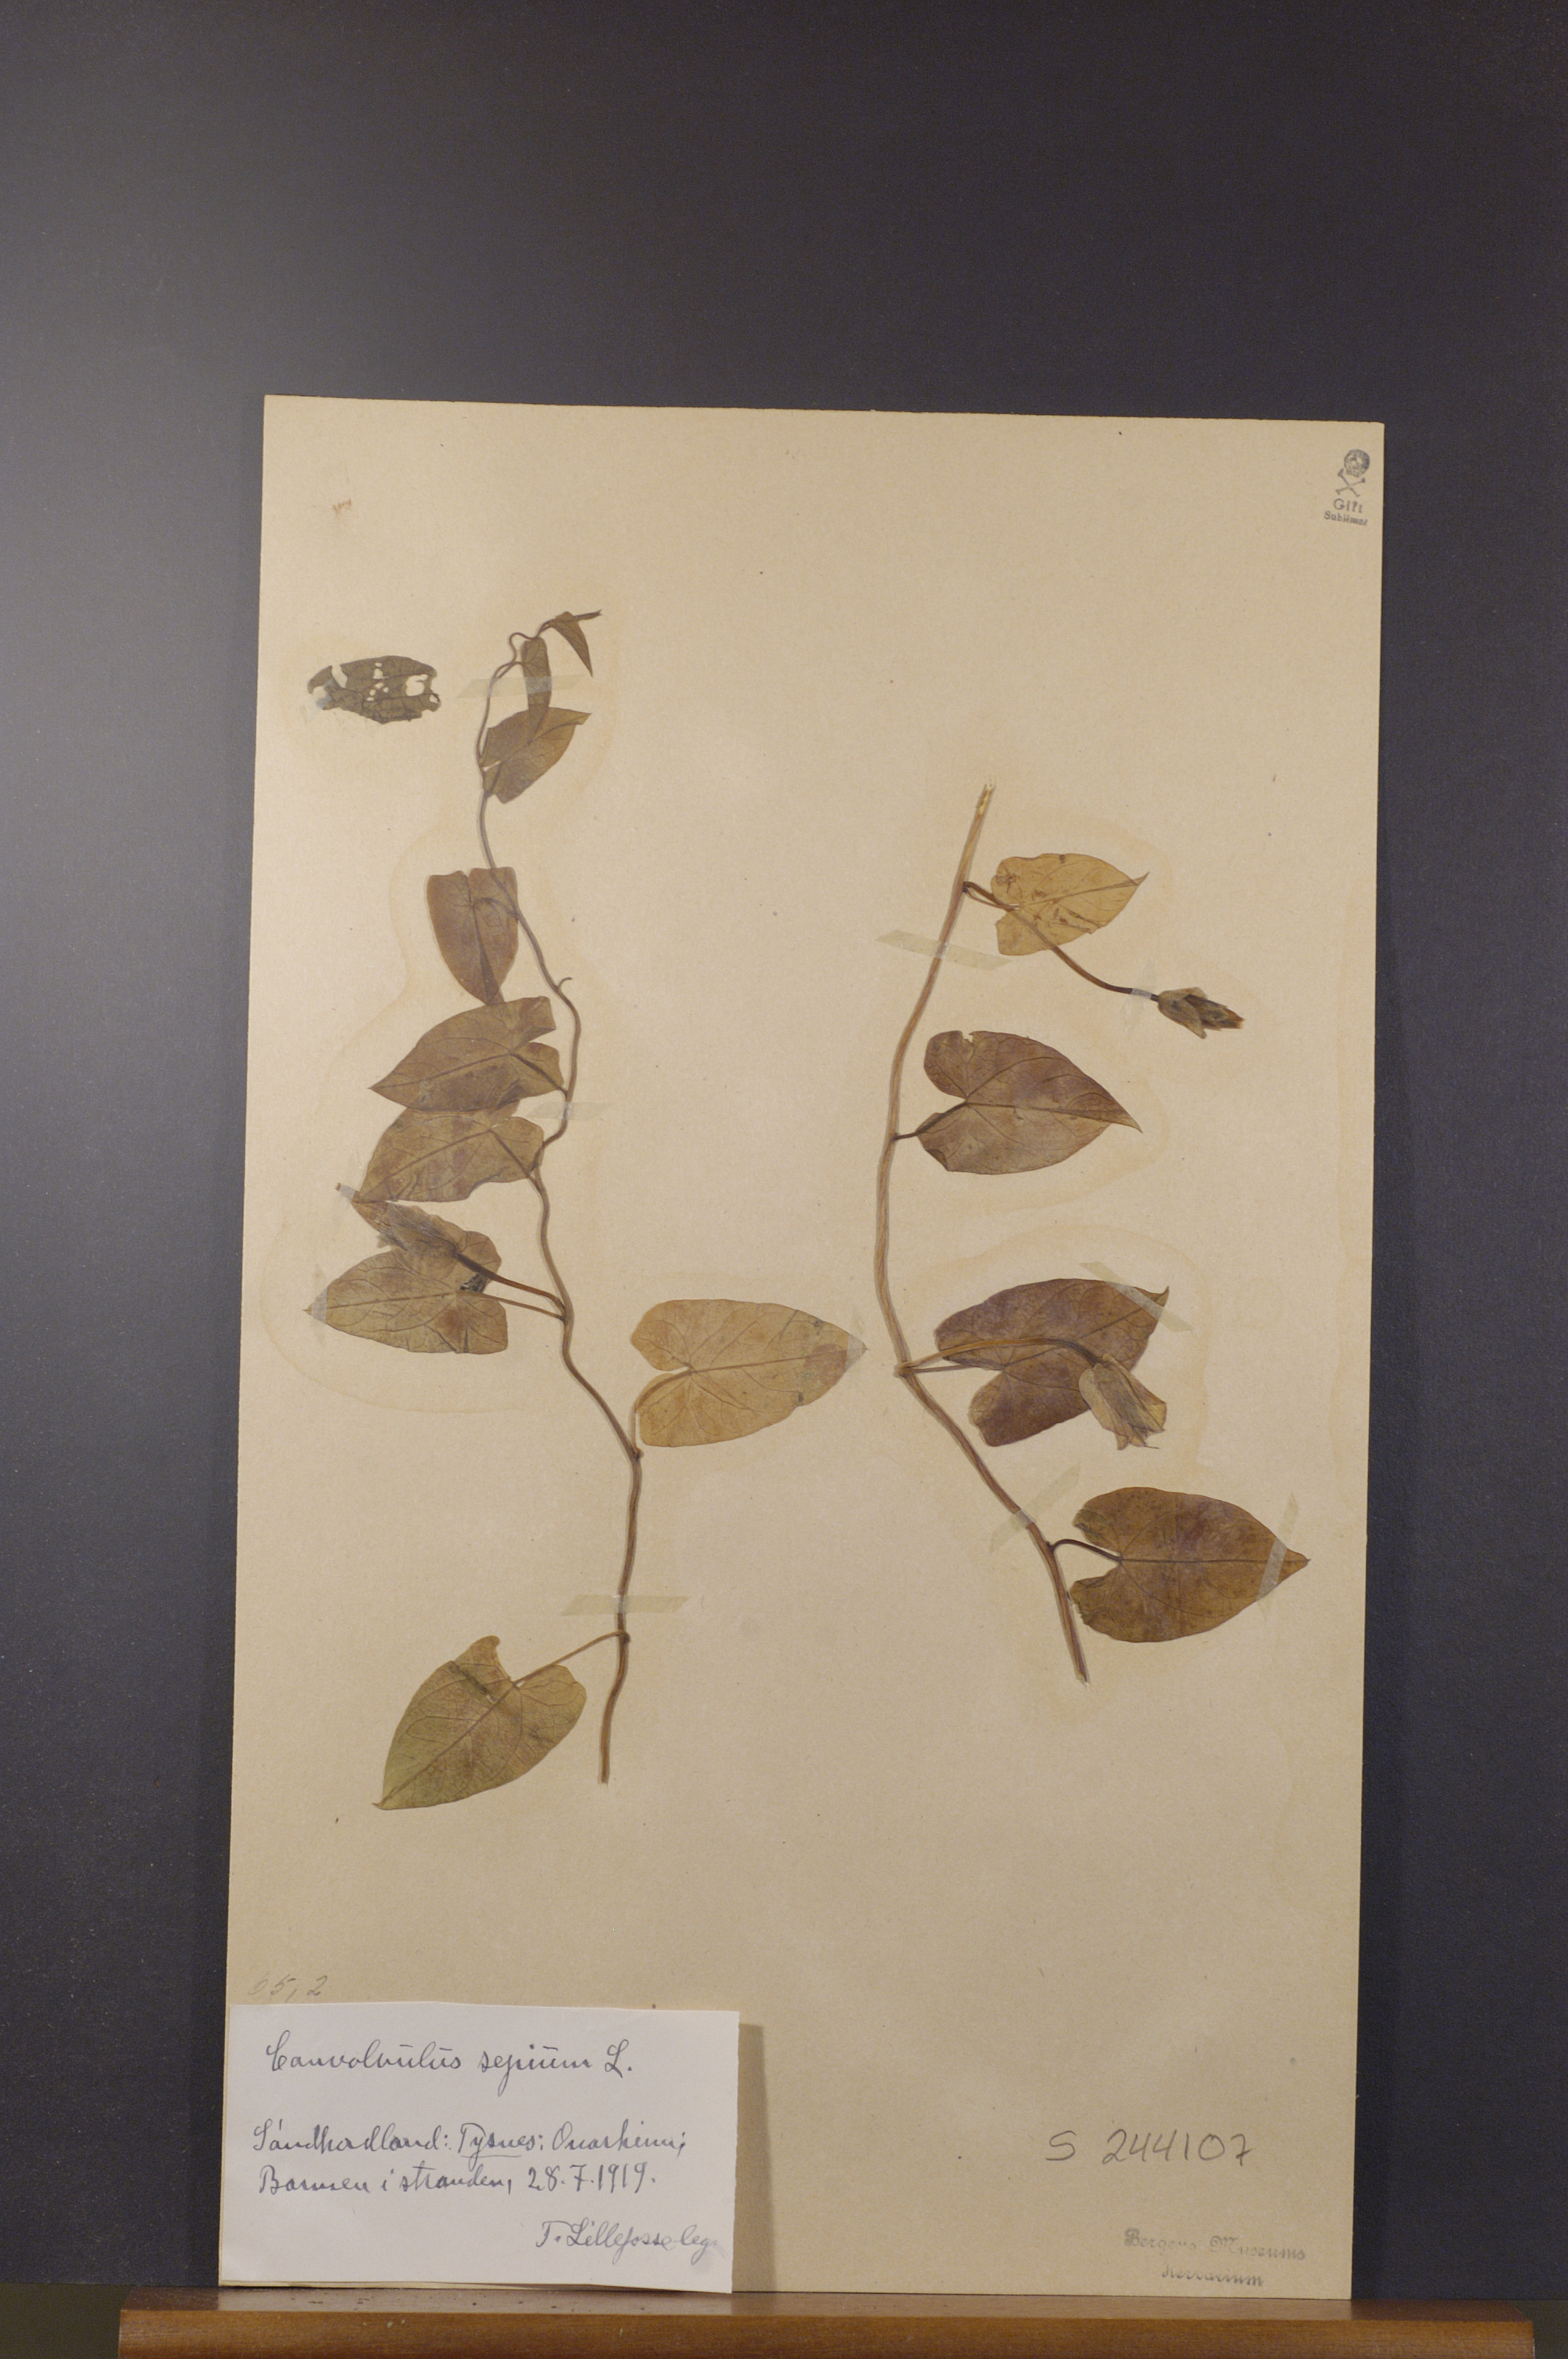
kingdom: Plantae
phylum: Tracheophyta
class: Magnoliopsida
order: Solanales
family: Convolvulaceae
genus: Calystegia
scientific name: Calystegia sepium
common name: Hedge bindweed
